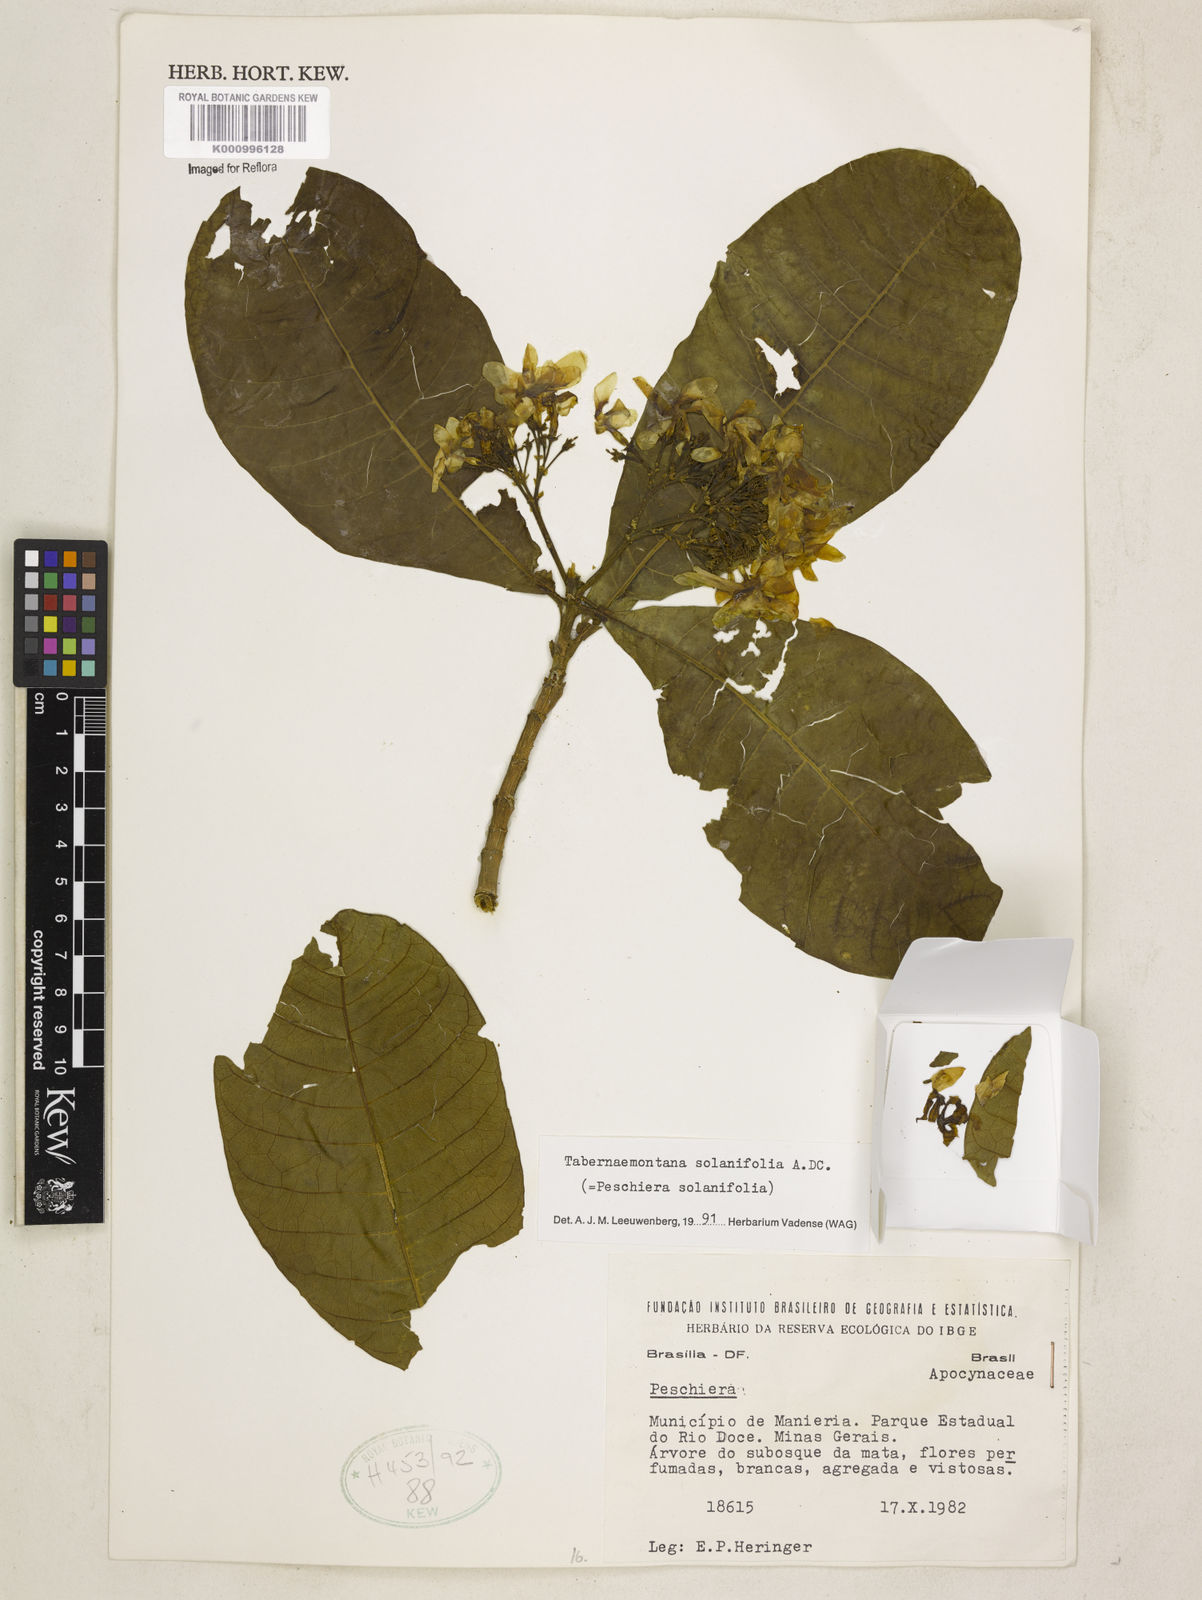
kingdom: Plantae
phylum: Tracheophyta
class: Magnoliopsida
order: Gentianales
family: Apocynaceae
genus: Tabernaemontana
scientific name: Tabernaemontana solanifolia
